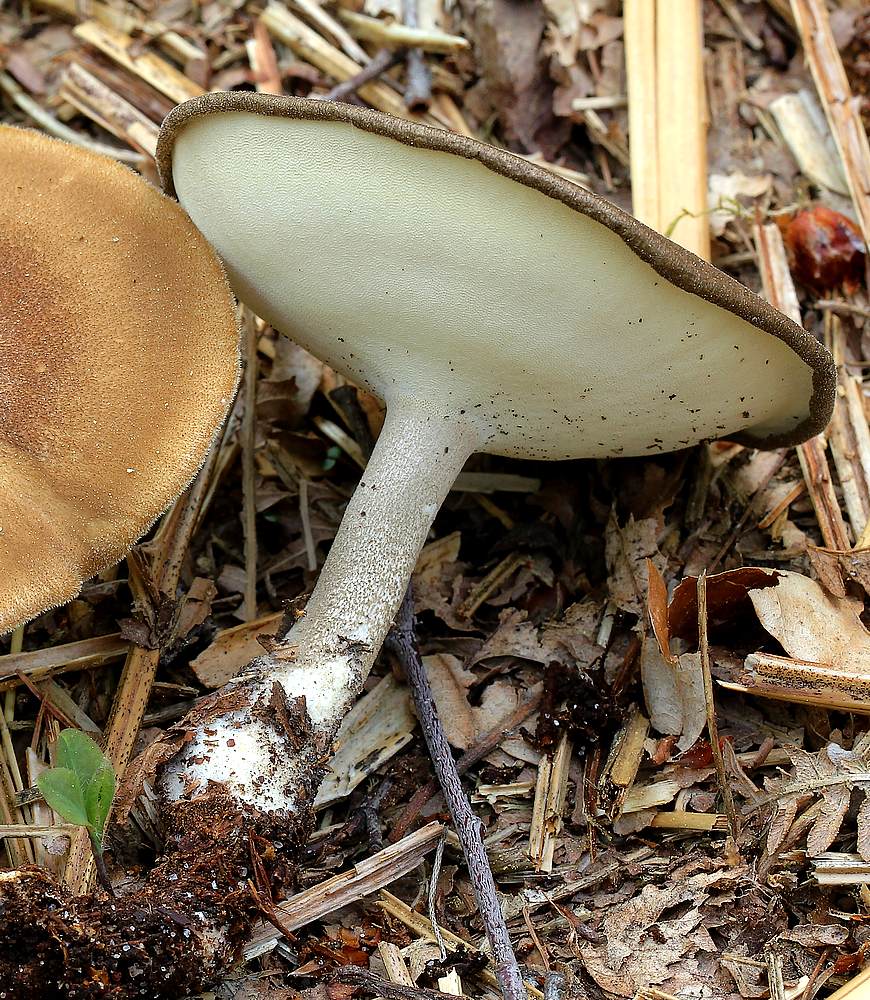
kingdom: Fungi
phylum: Basidiomycota
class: Agaricomycetes
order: Polyporales
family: Polyporaceae
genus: Lentinus
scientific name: Lentinus substrictus
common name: forårs-stilkporesvamp
